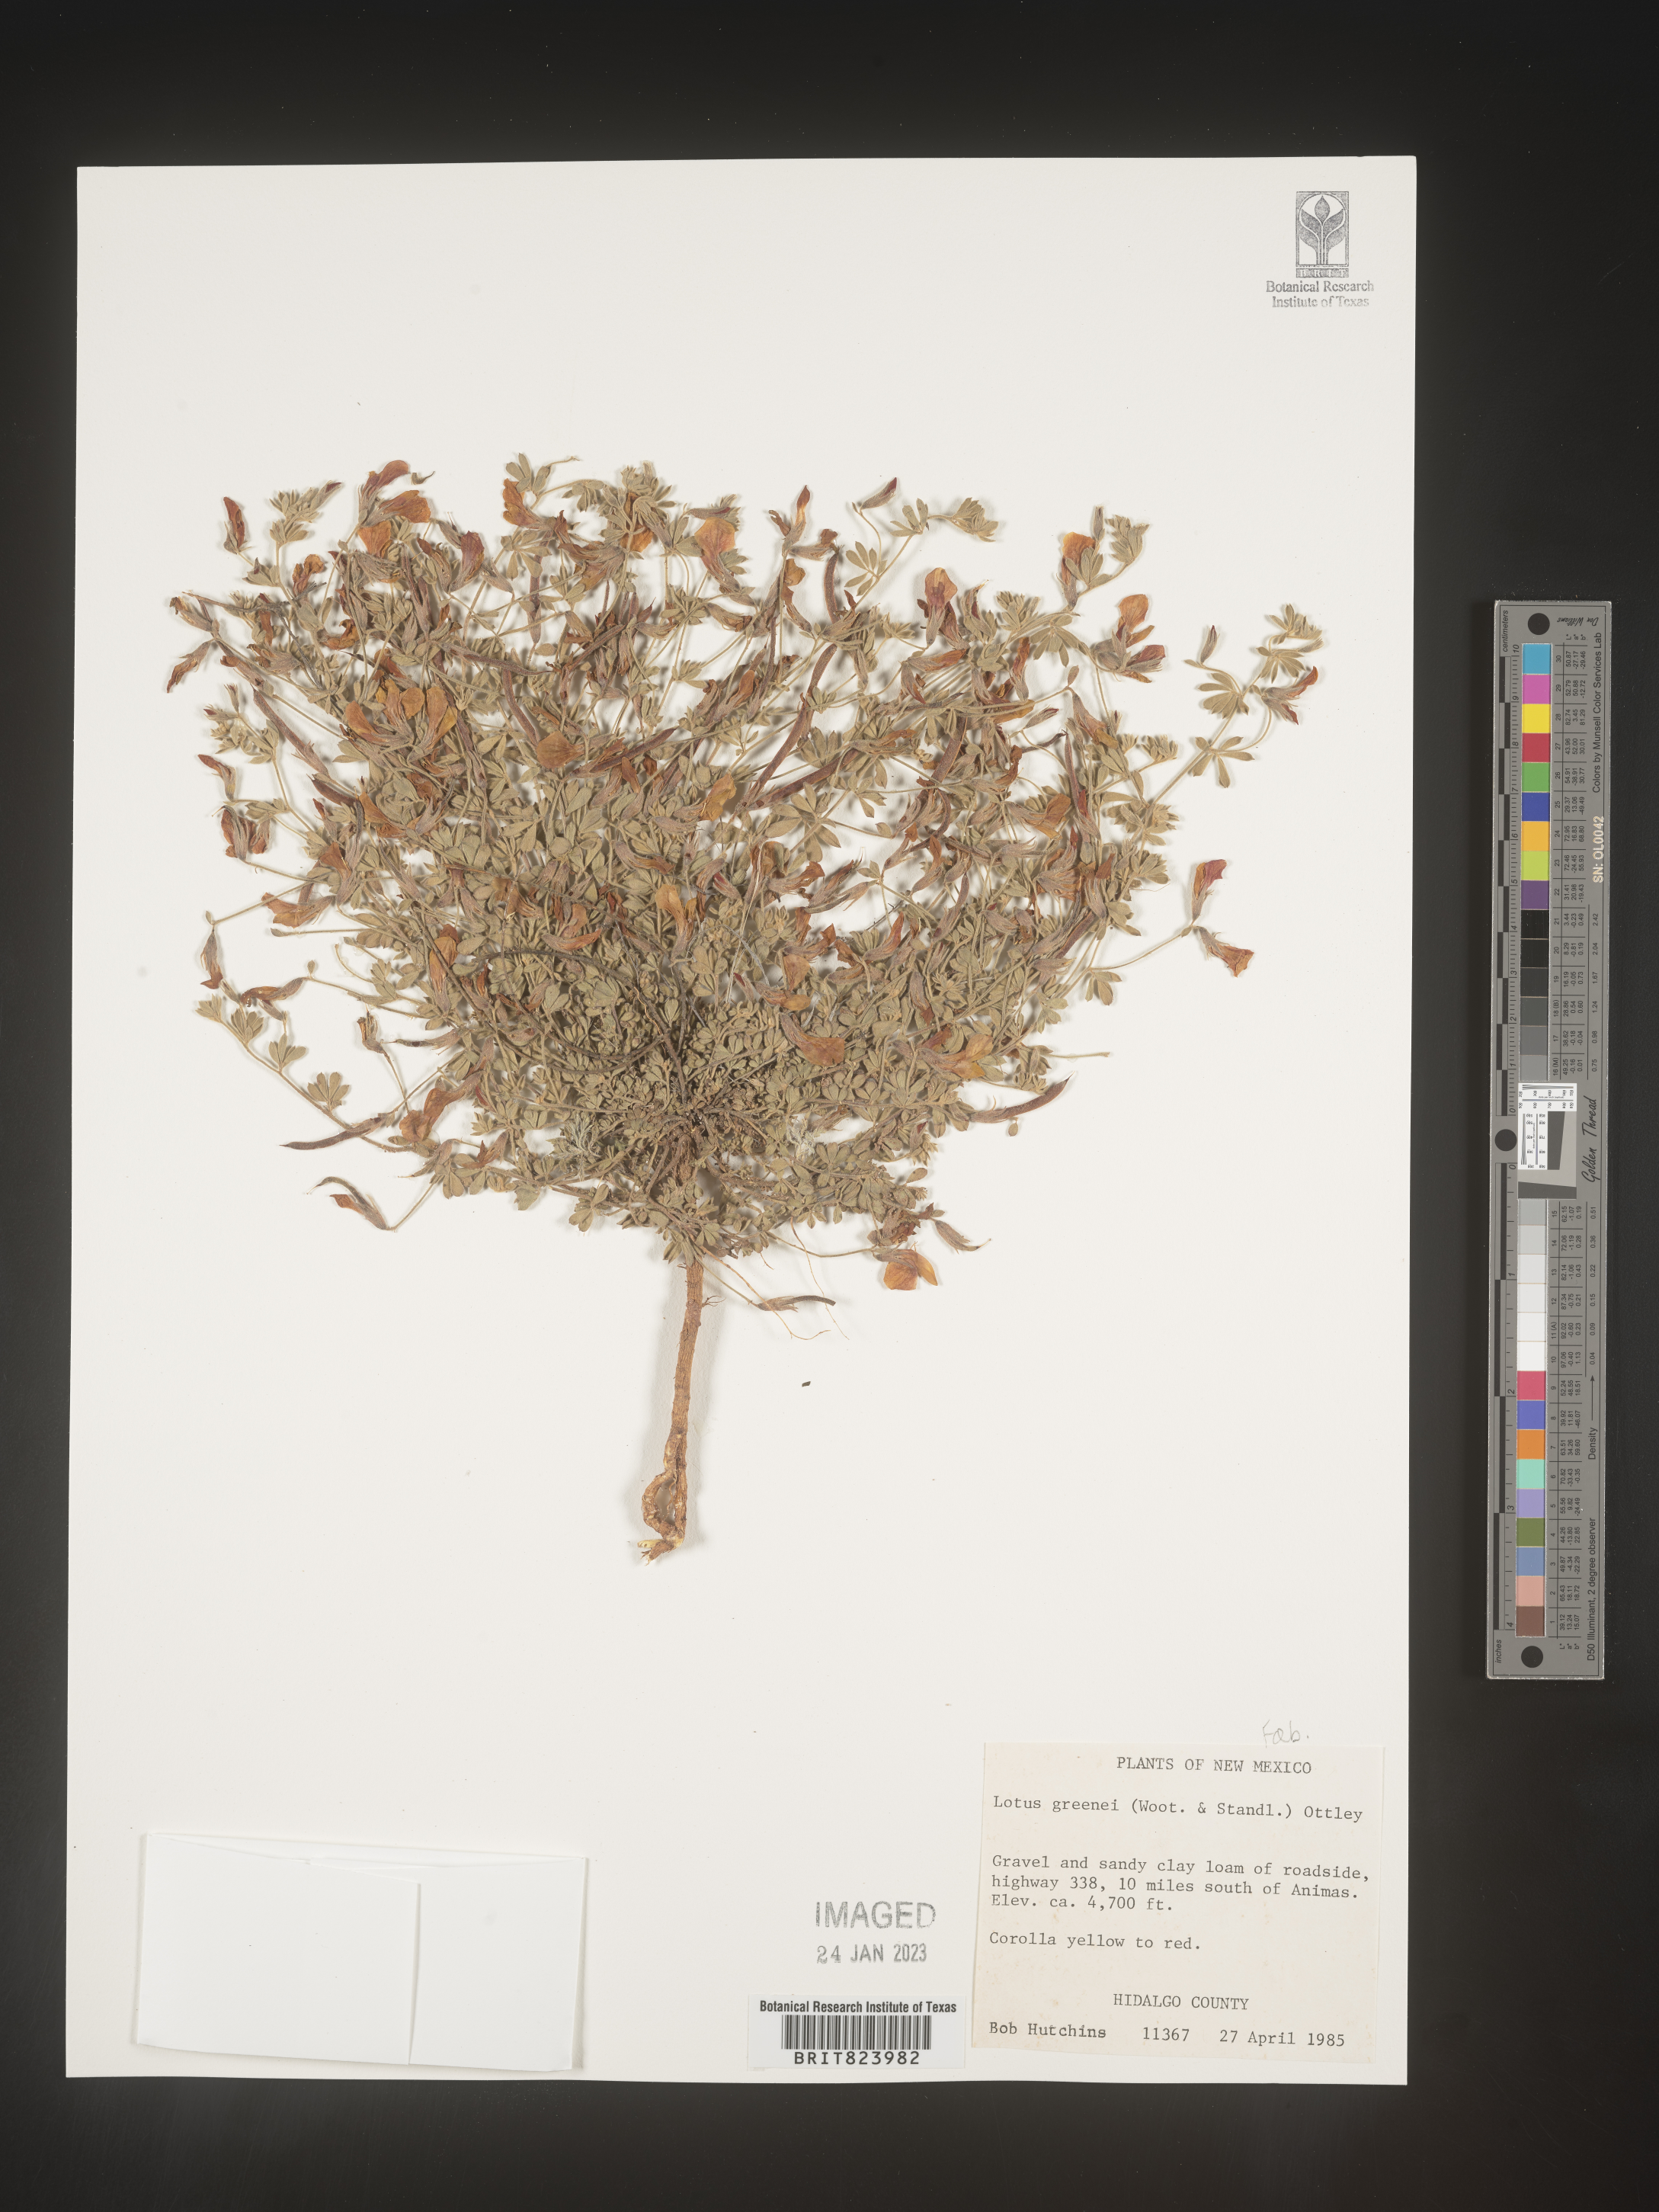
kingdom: Plantae
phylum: Tracheophyta
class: Magnoliopsida
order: Fabales
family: Fabaceae
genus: Lotus
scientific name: Lotus
